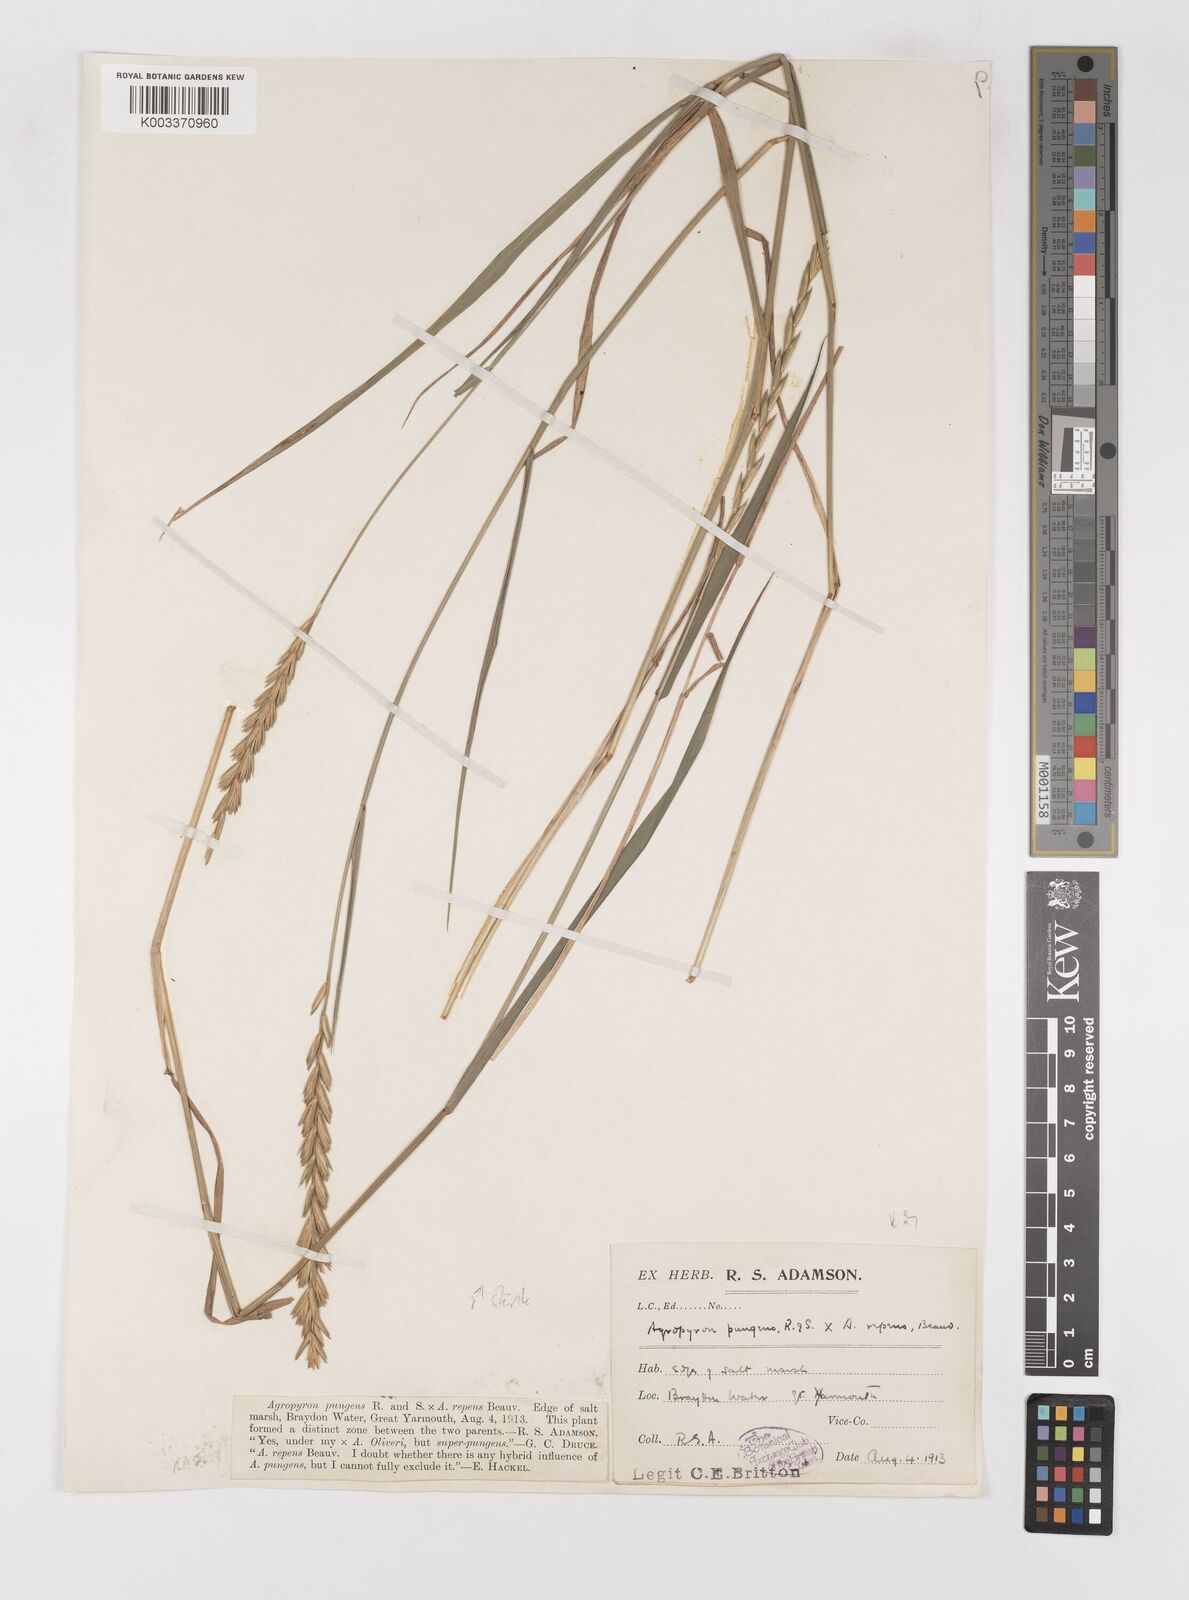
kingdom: Plantae
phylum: Tracheophyta
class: Liliopsida
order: Poales
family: Poaceae
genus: Elymus
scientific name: Elymus repens
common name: Quackgrass
